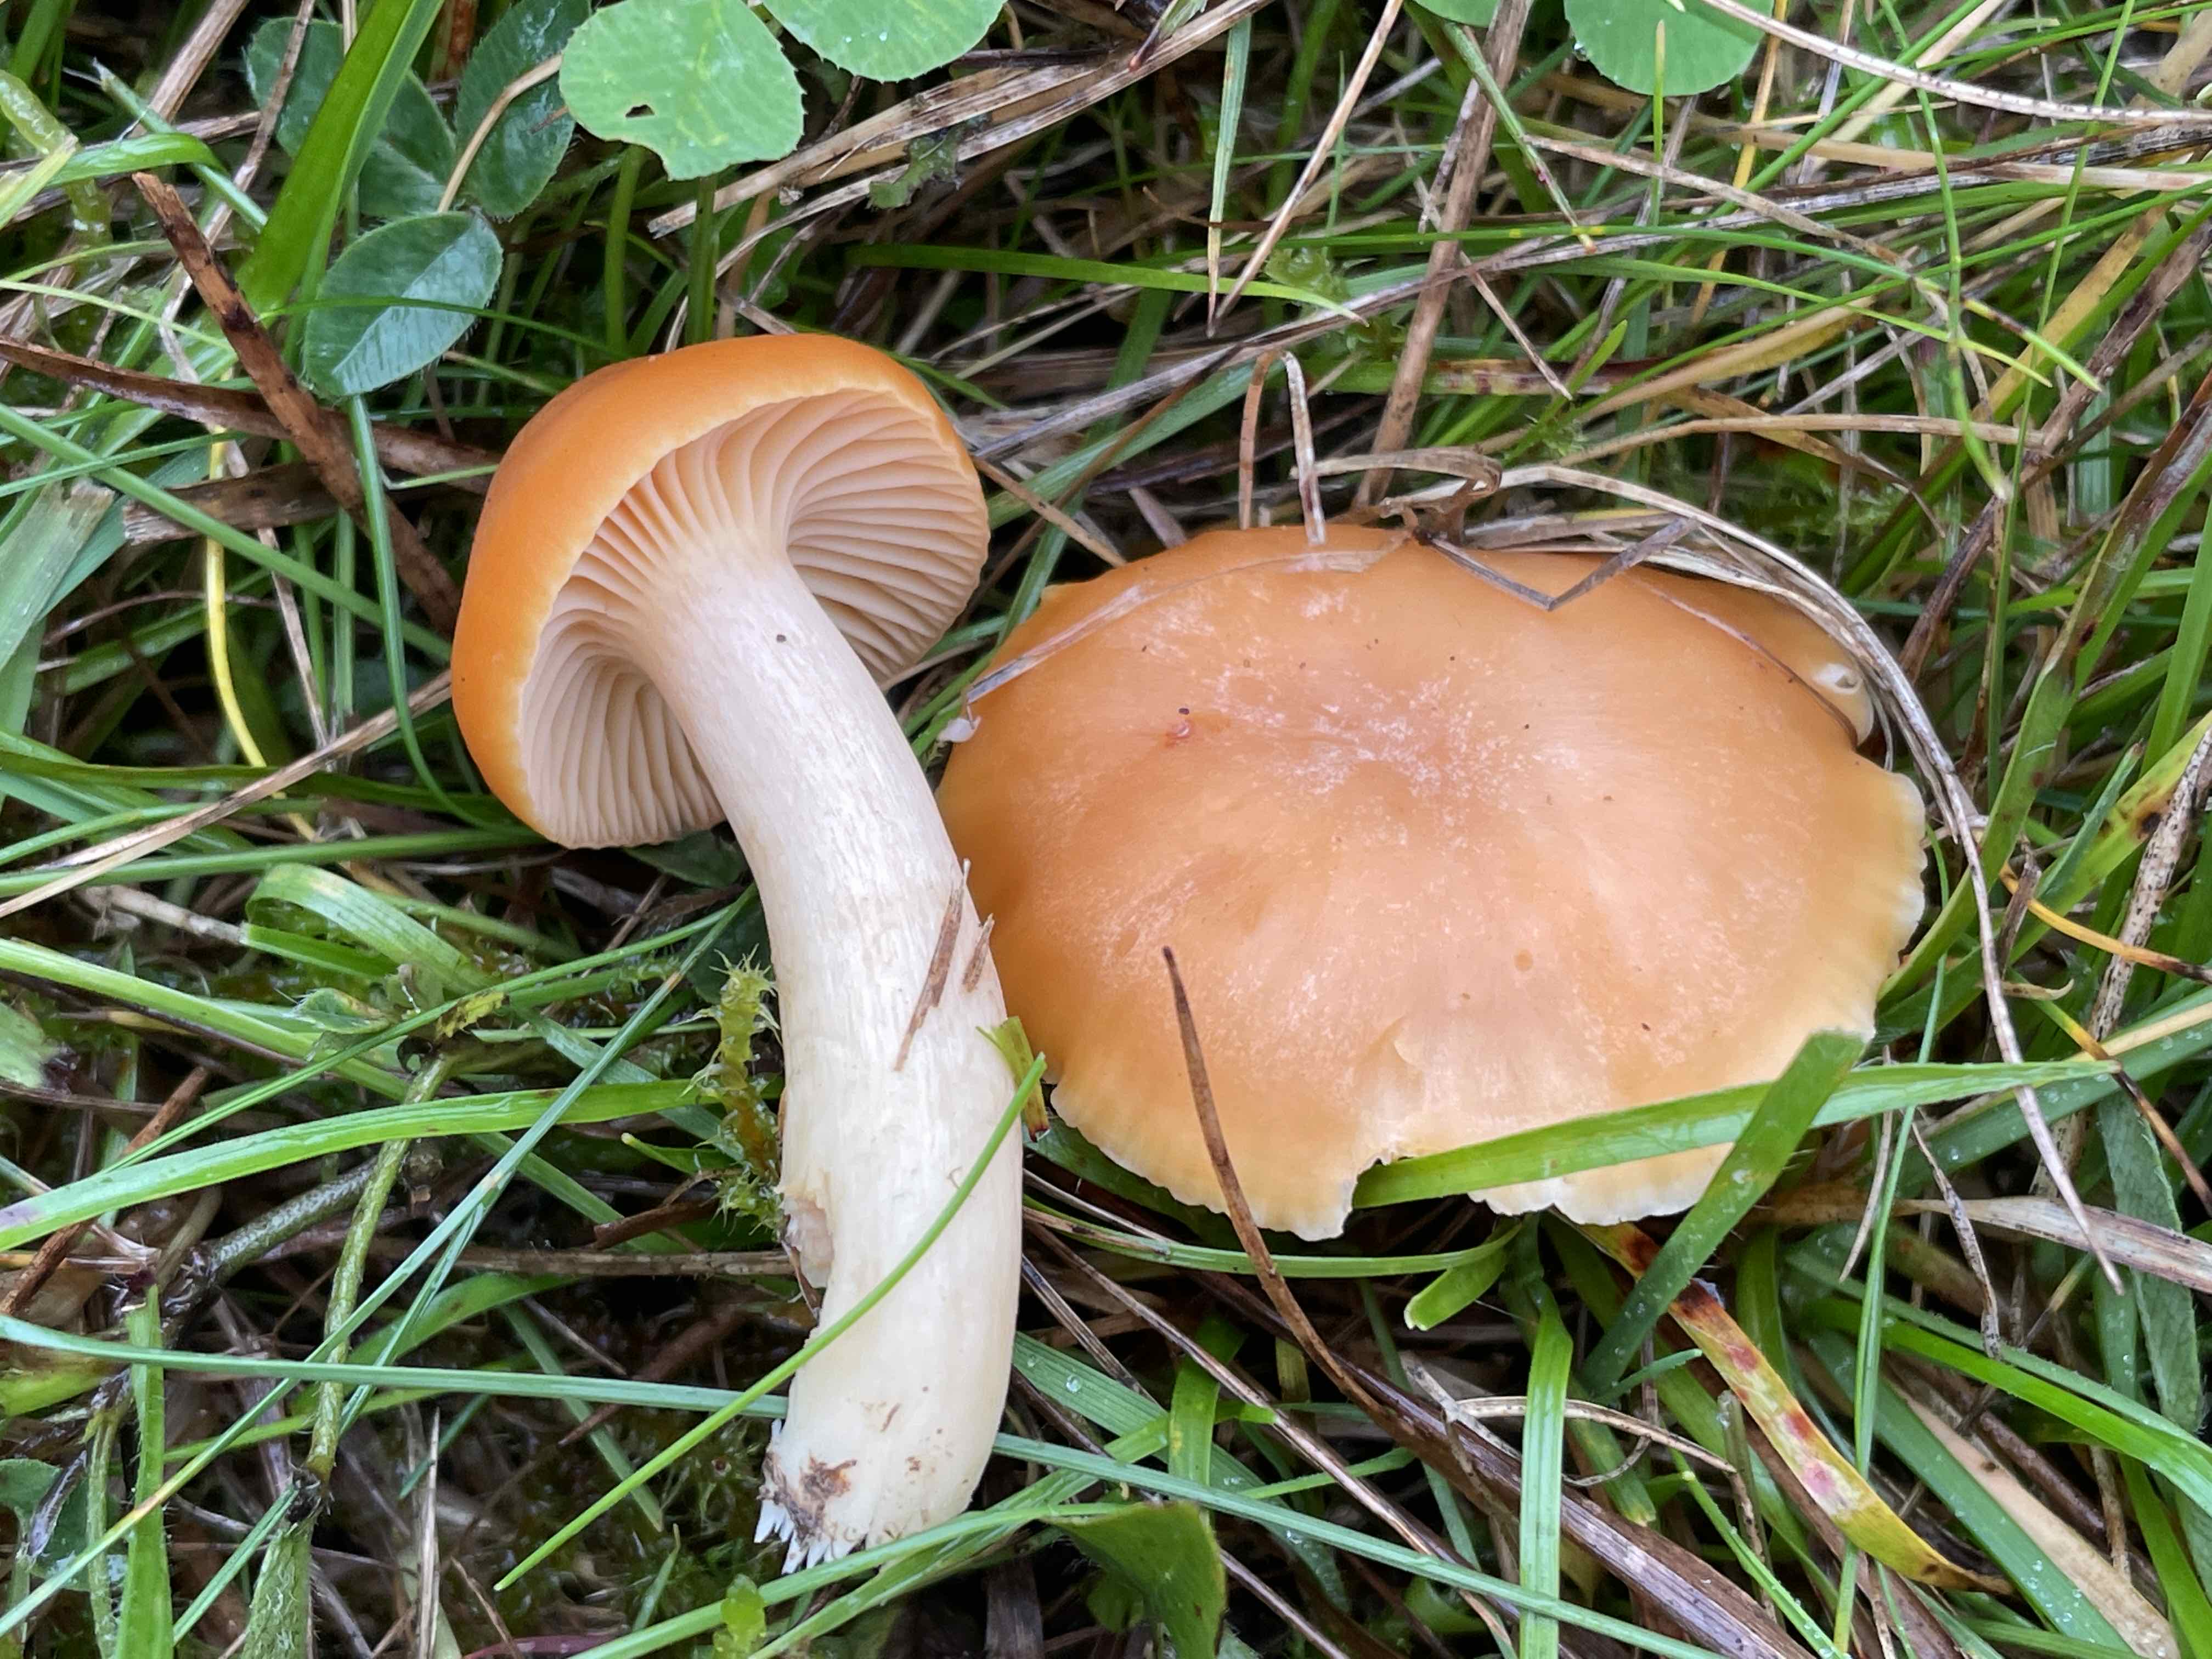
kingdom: Fungi
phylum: Basidiomycota
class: Agaricomycetes
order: Agaricales
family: Hygrophoraceae
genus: Cuphophyllus
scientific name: Cuphophyllus pratensis
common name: eng-vokshat
